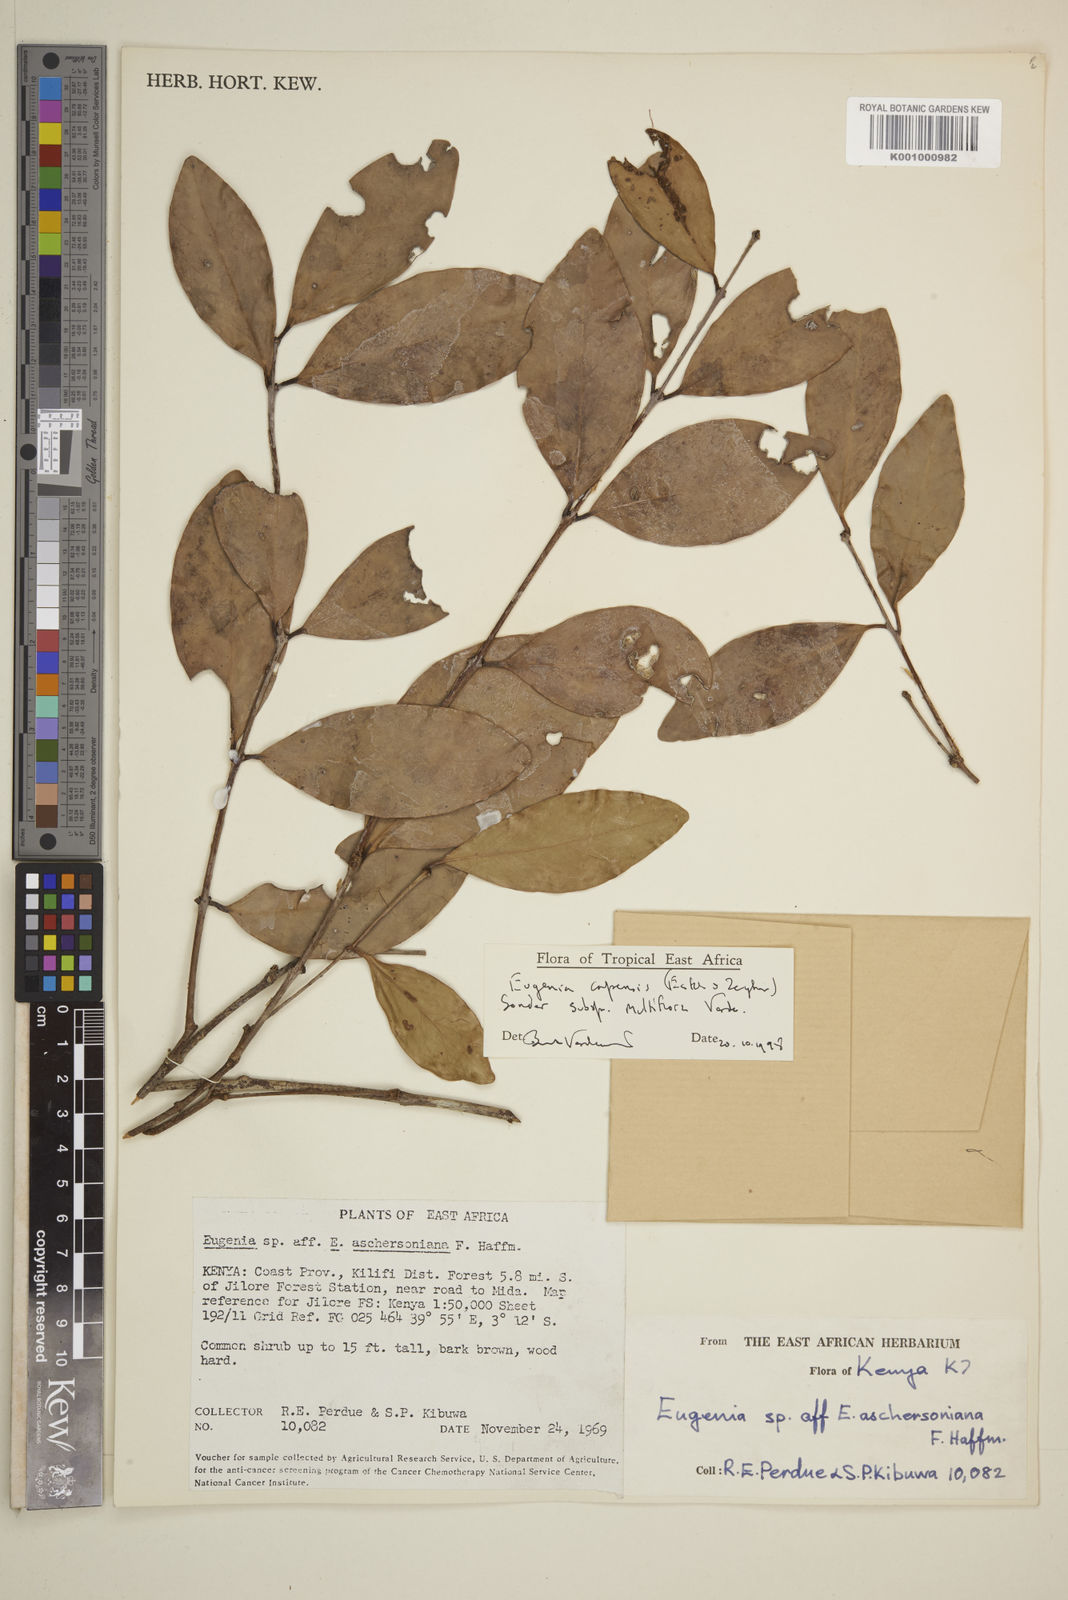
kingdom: Plantae
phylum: Tracheophyta
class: Magnoliopsida
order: Myrtales
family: Myrtaceae
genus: Eugenia
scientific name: Eugenia capensis
